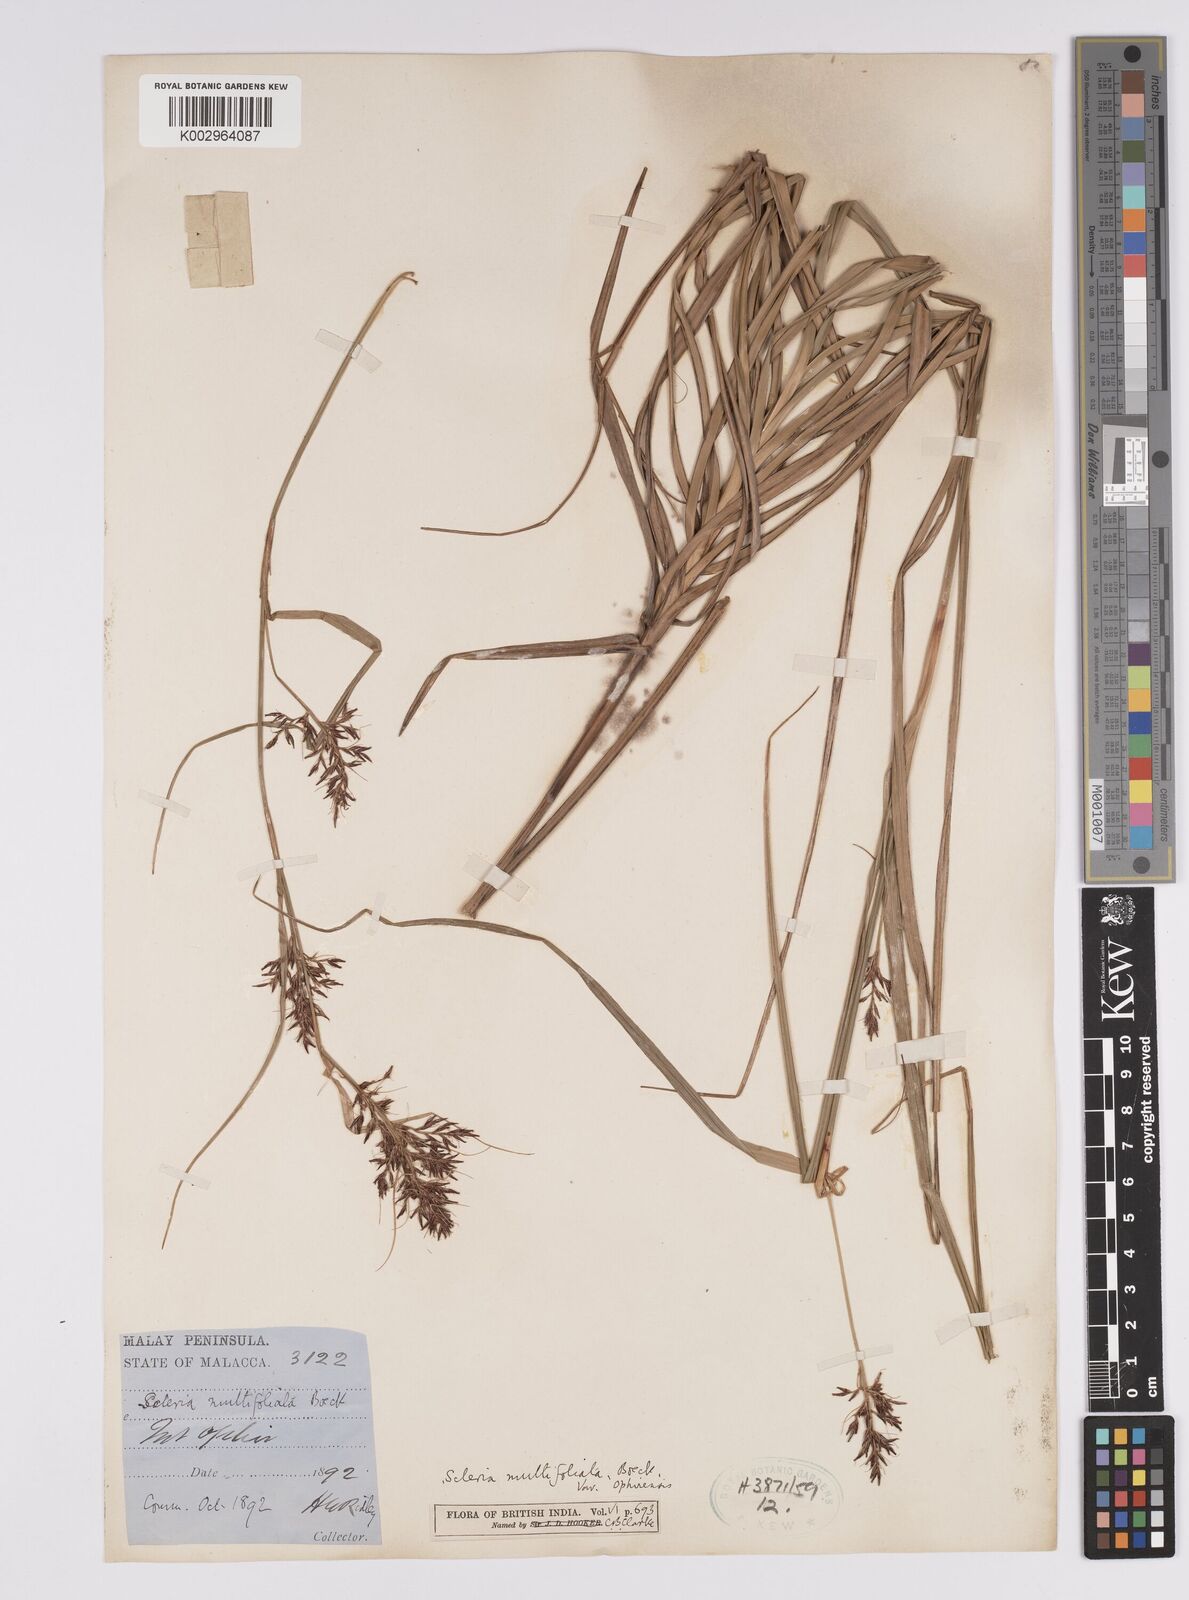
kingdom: Plantae
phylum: Tracheophyta
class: Liliopsida
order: Poales
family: Cyperaceae
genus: Scleria
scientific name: Scleria purpurascens
